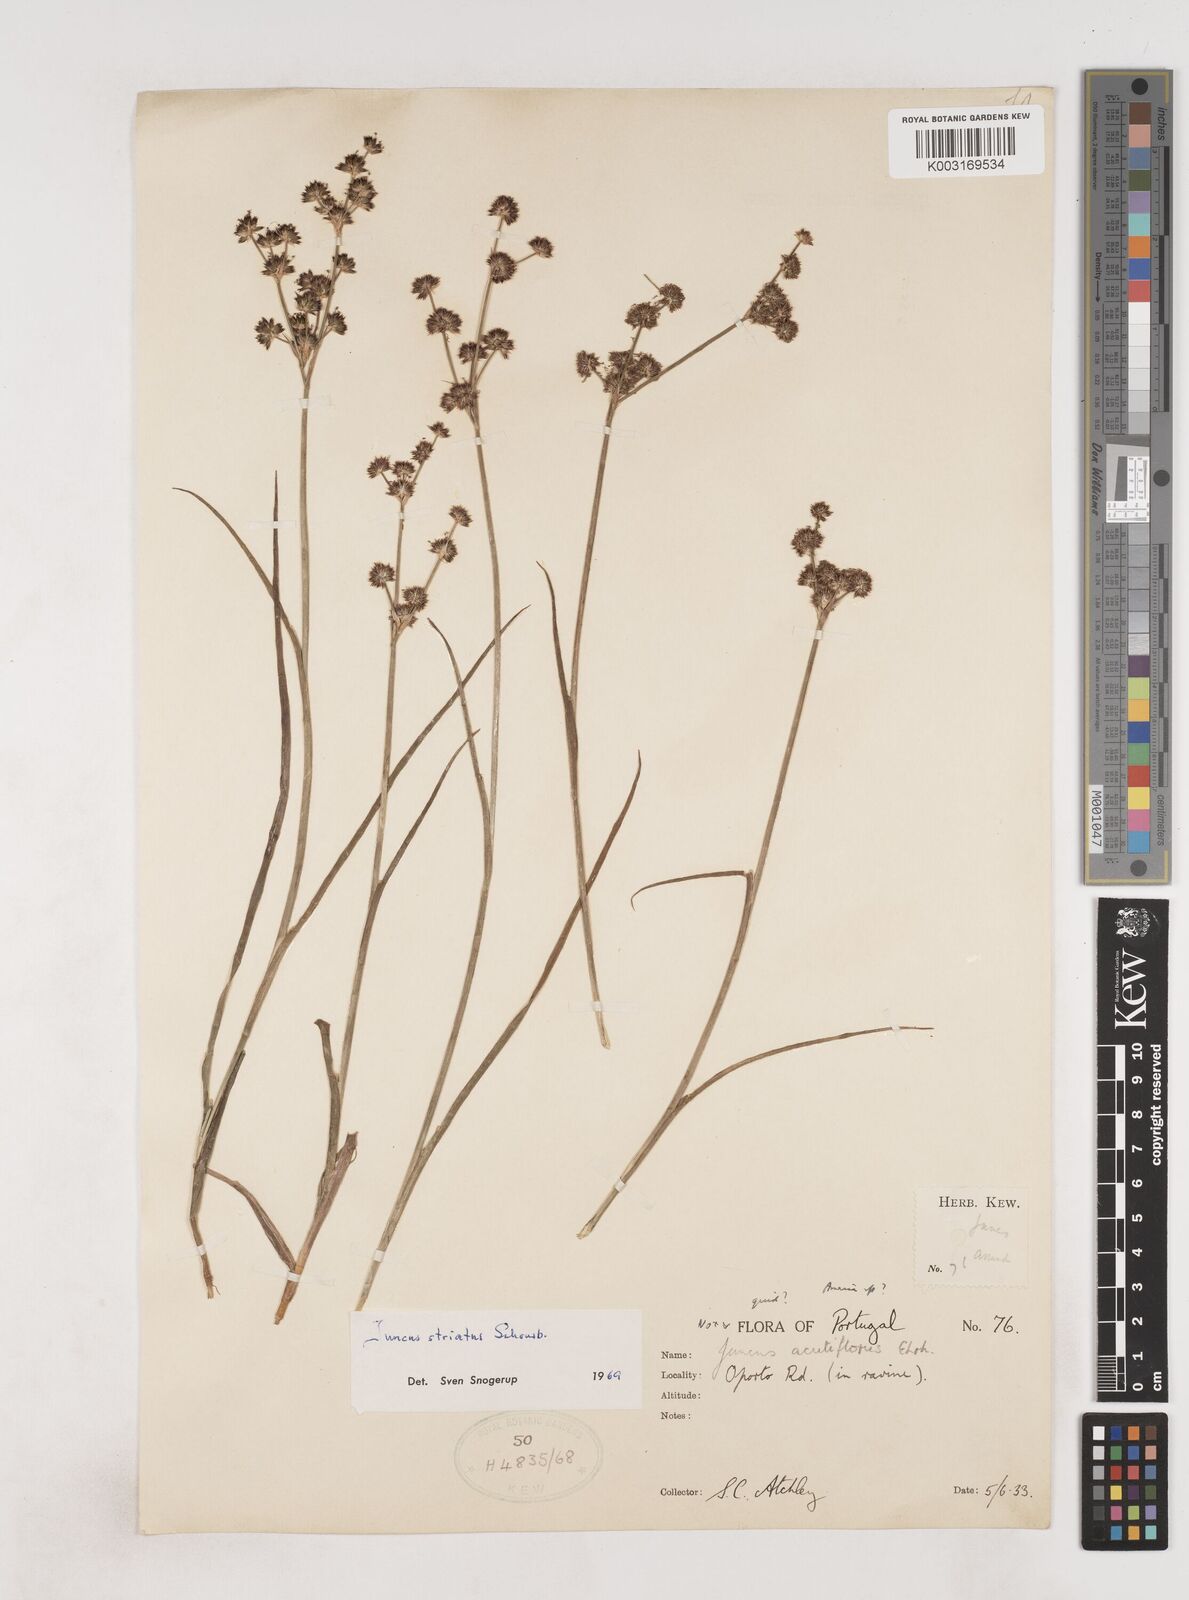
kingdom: Plantae
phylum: Tracheophyta
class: Liliopsida
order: Poales
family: Juncaceae
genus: Juncus
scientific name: Juncus striatus
